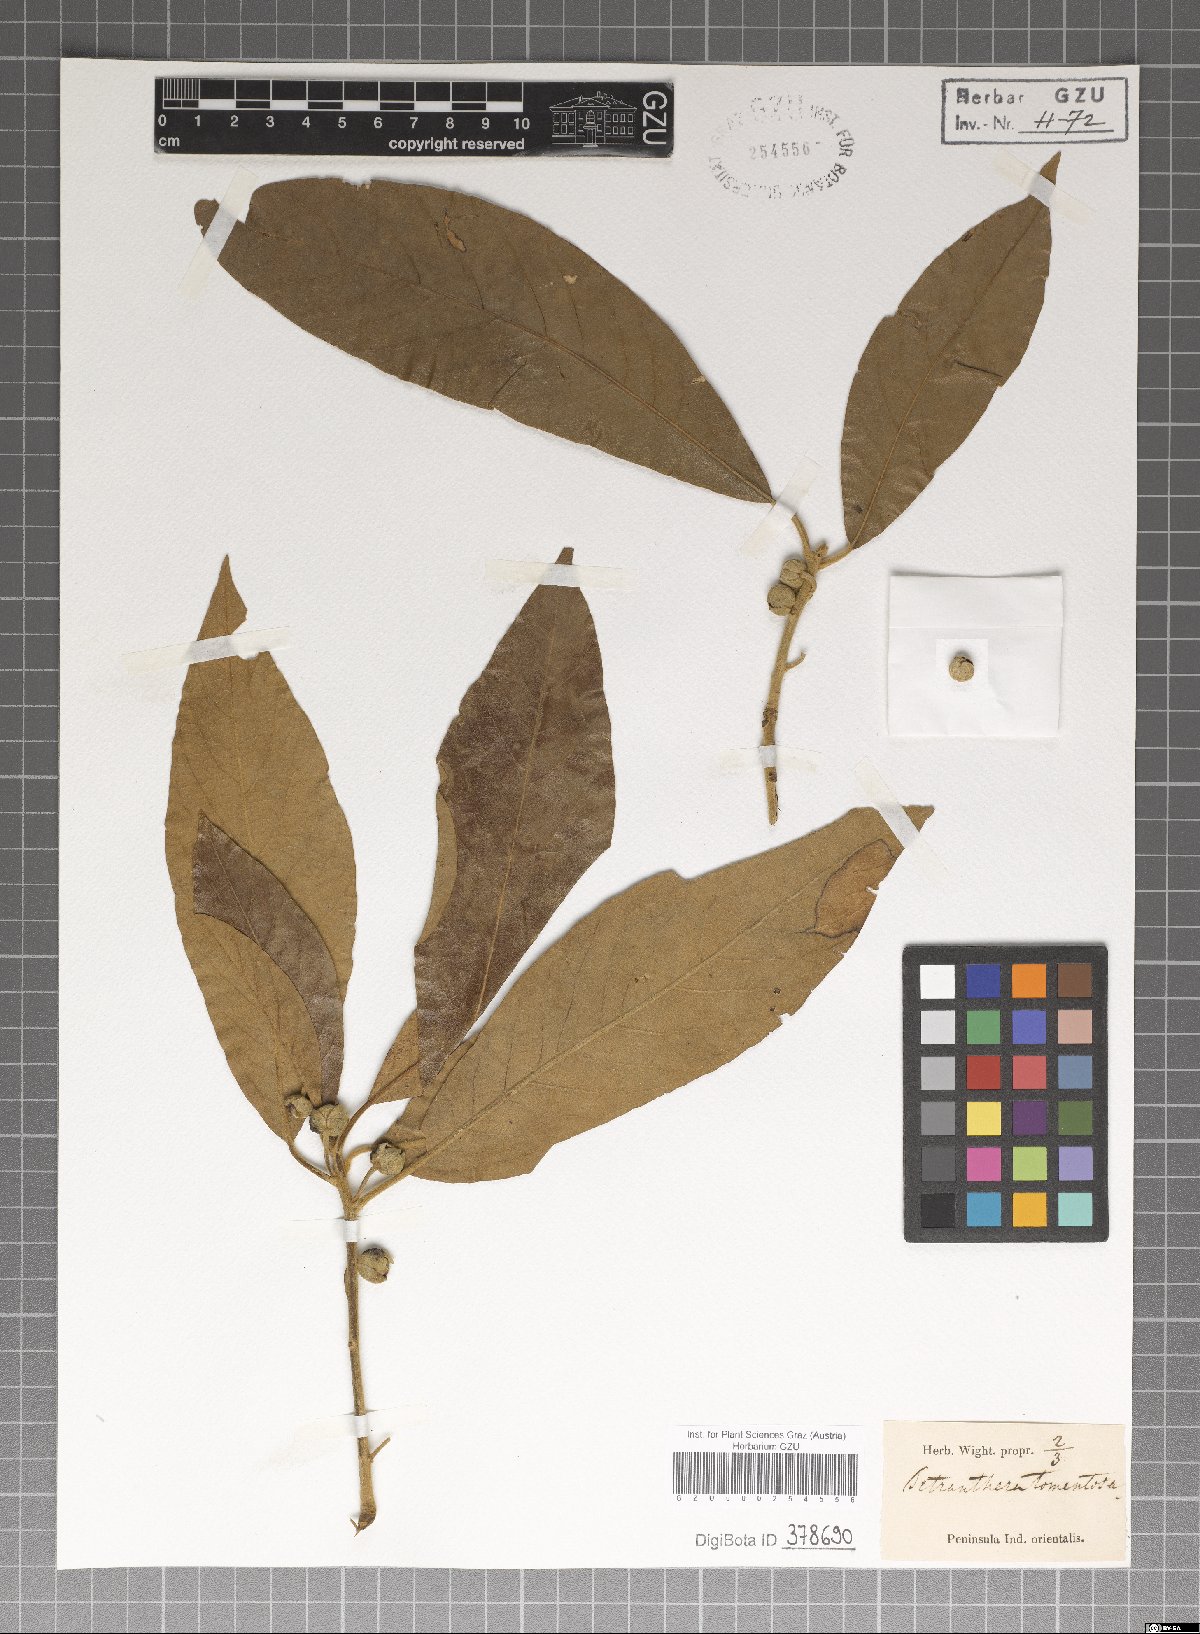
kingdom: Plantae
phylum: Tracheophyta
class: Magnoliopsida
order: Laurales
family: Lauraceae
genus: Litsea
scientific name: Litsea glutinosa
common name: Indian-laurel
